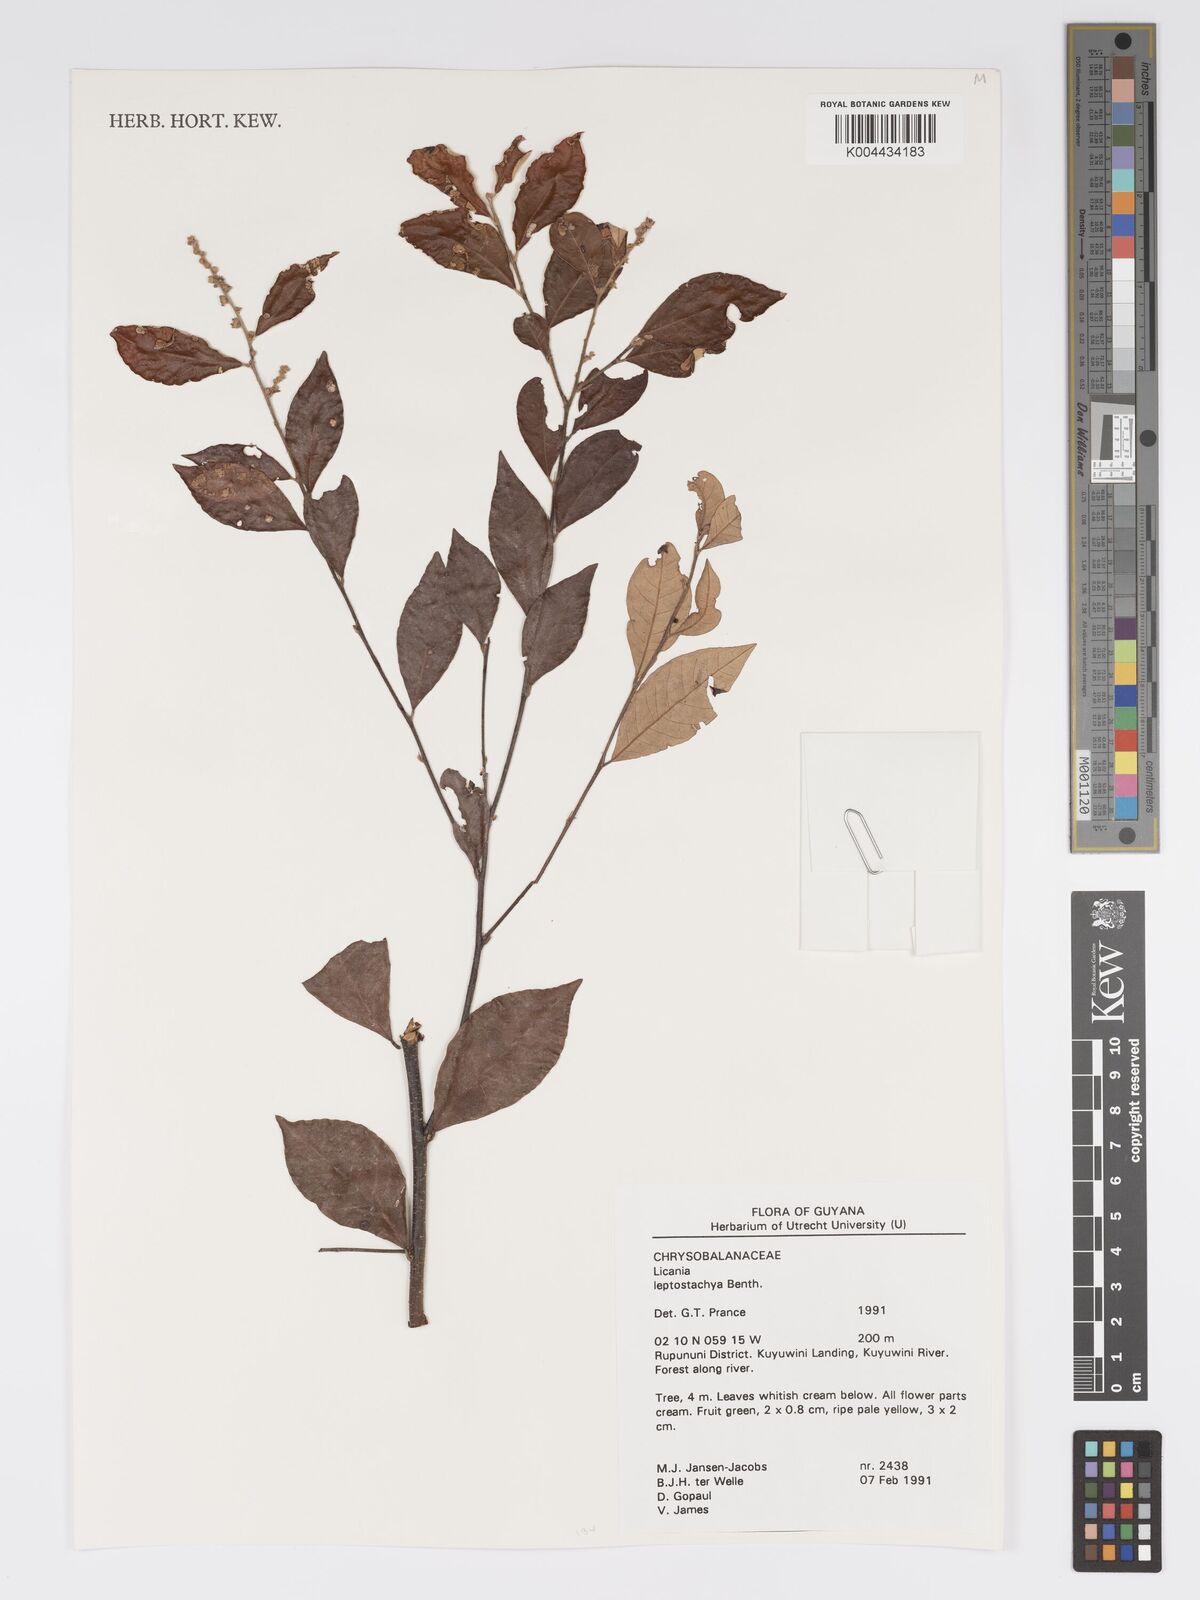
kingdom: Plantae
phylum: Tracheophyta
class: Magnoliopsida
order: Malpighiales
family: Chrysobalanaceae
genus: Licania
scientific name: Licania leptostachya
